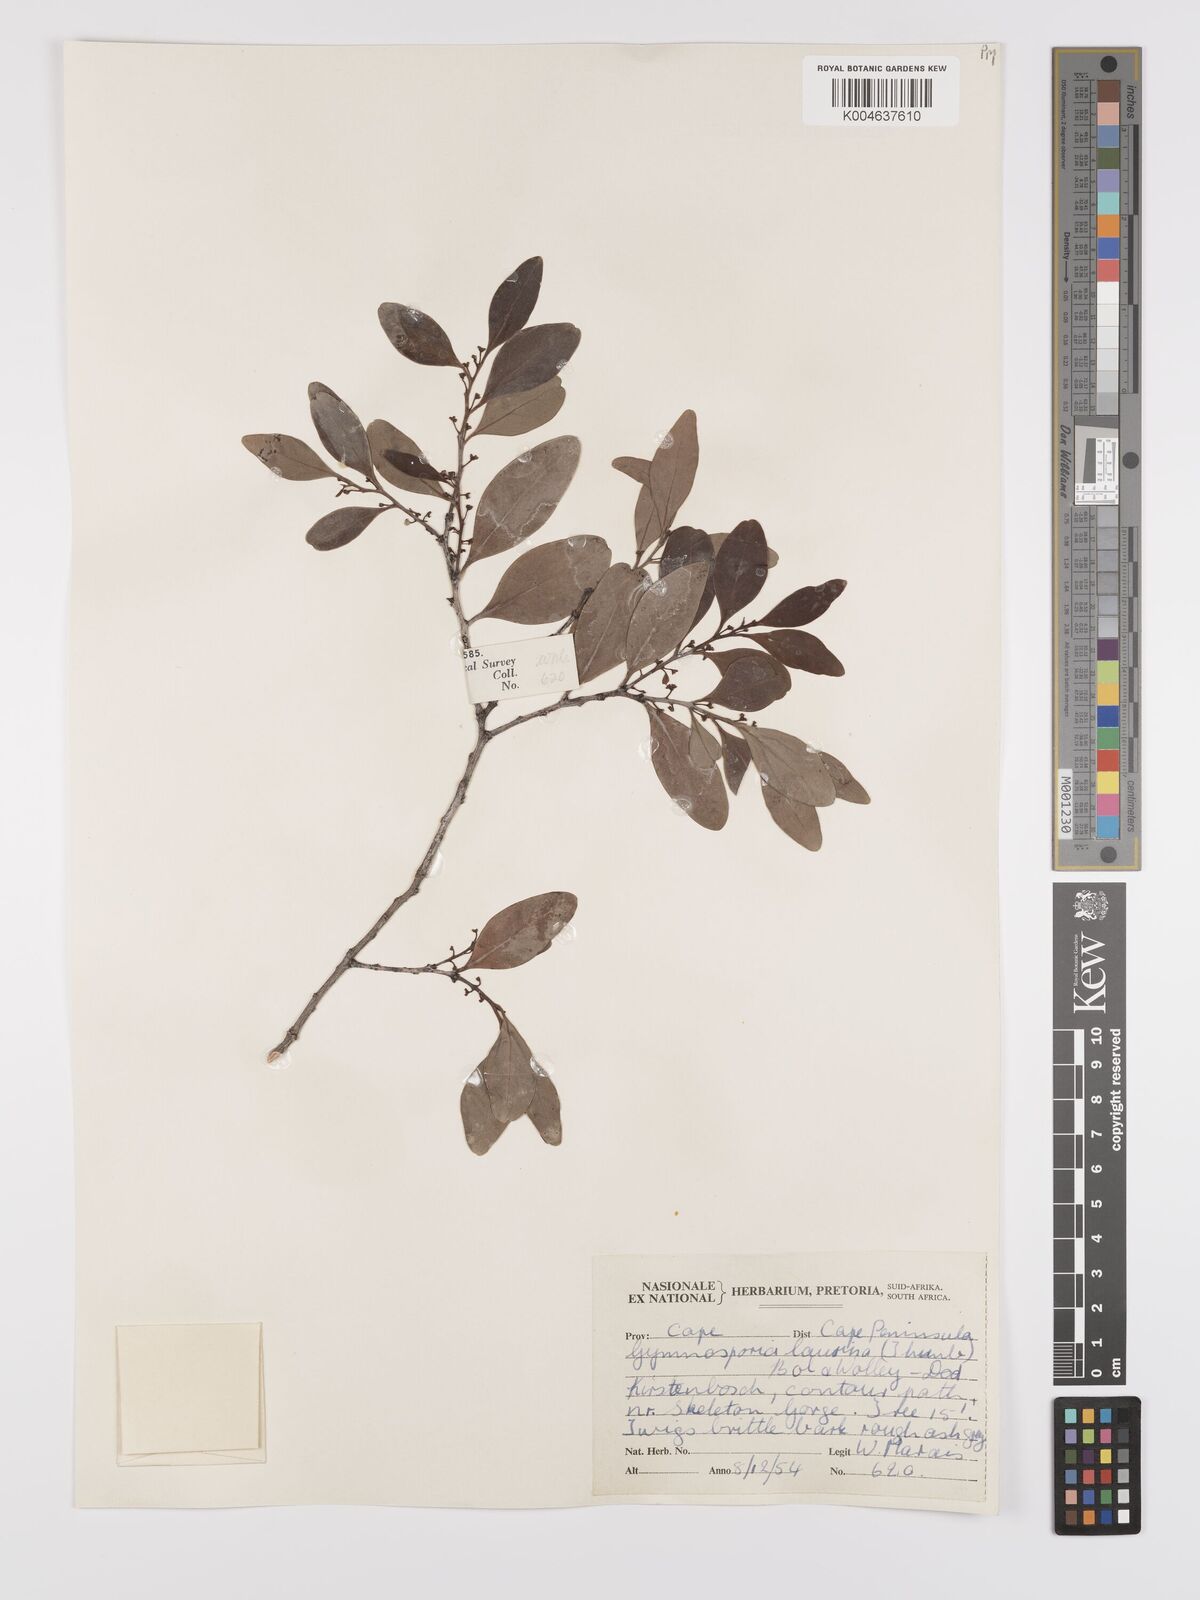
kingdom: Plantae
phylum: Tracheophyta
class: Magnoliopsida
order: Celastrales
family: Celastraceae
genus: Monteverdia
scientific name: Monteverdia laurina
